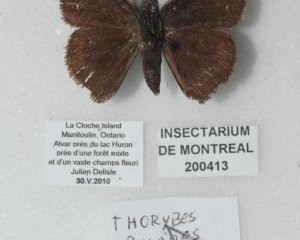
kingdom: Animalia
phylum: Arthropoda
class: Insecta
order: Lepidoptera
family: Hesperiidae
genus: Autochton
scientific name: Autochton
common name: Northern Cloudywing
